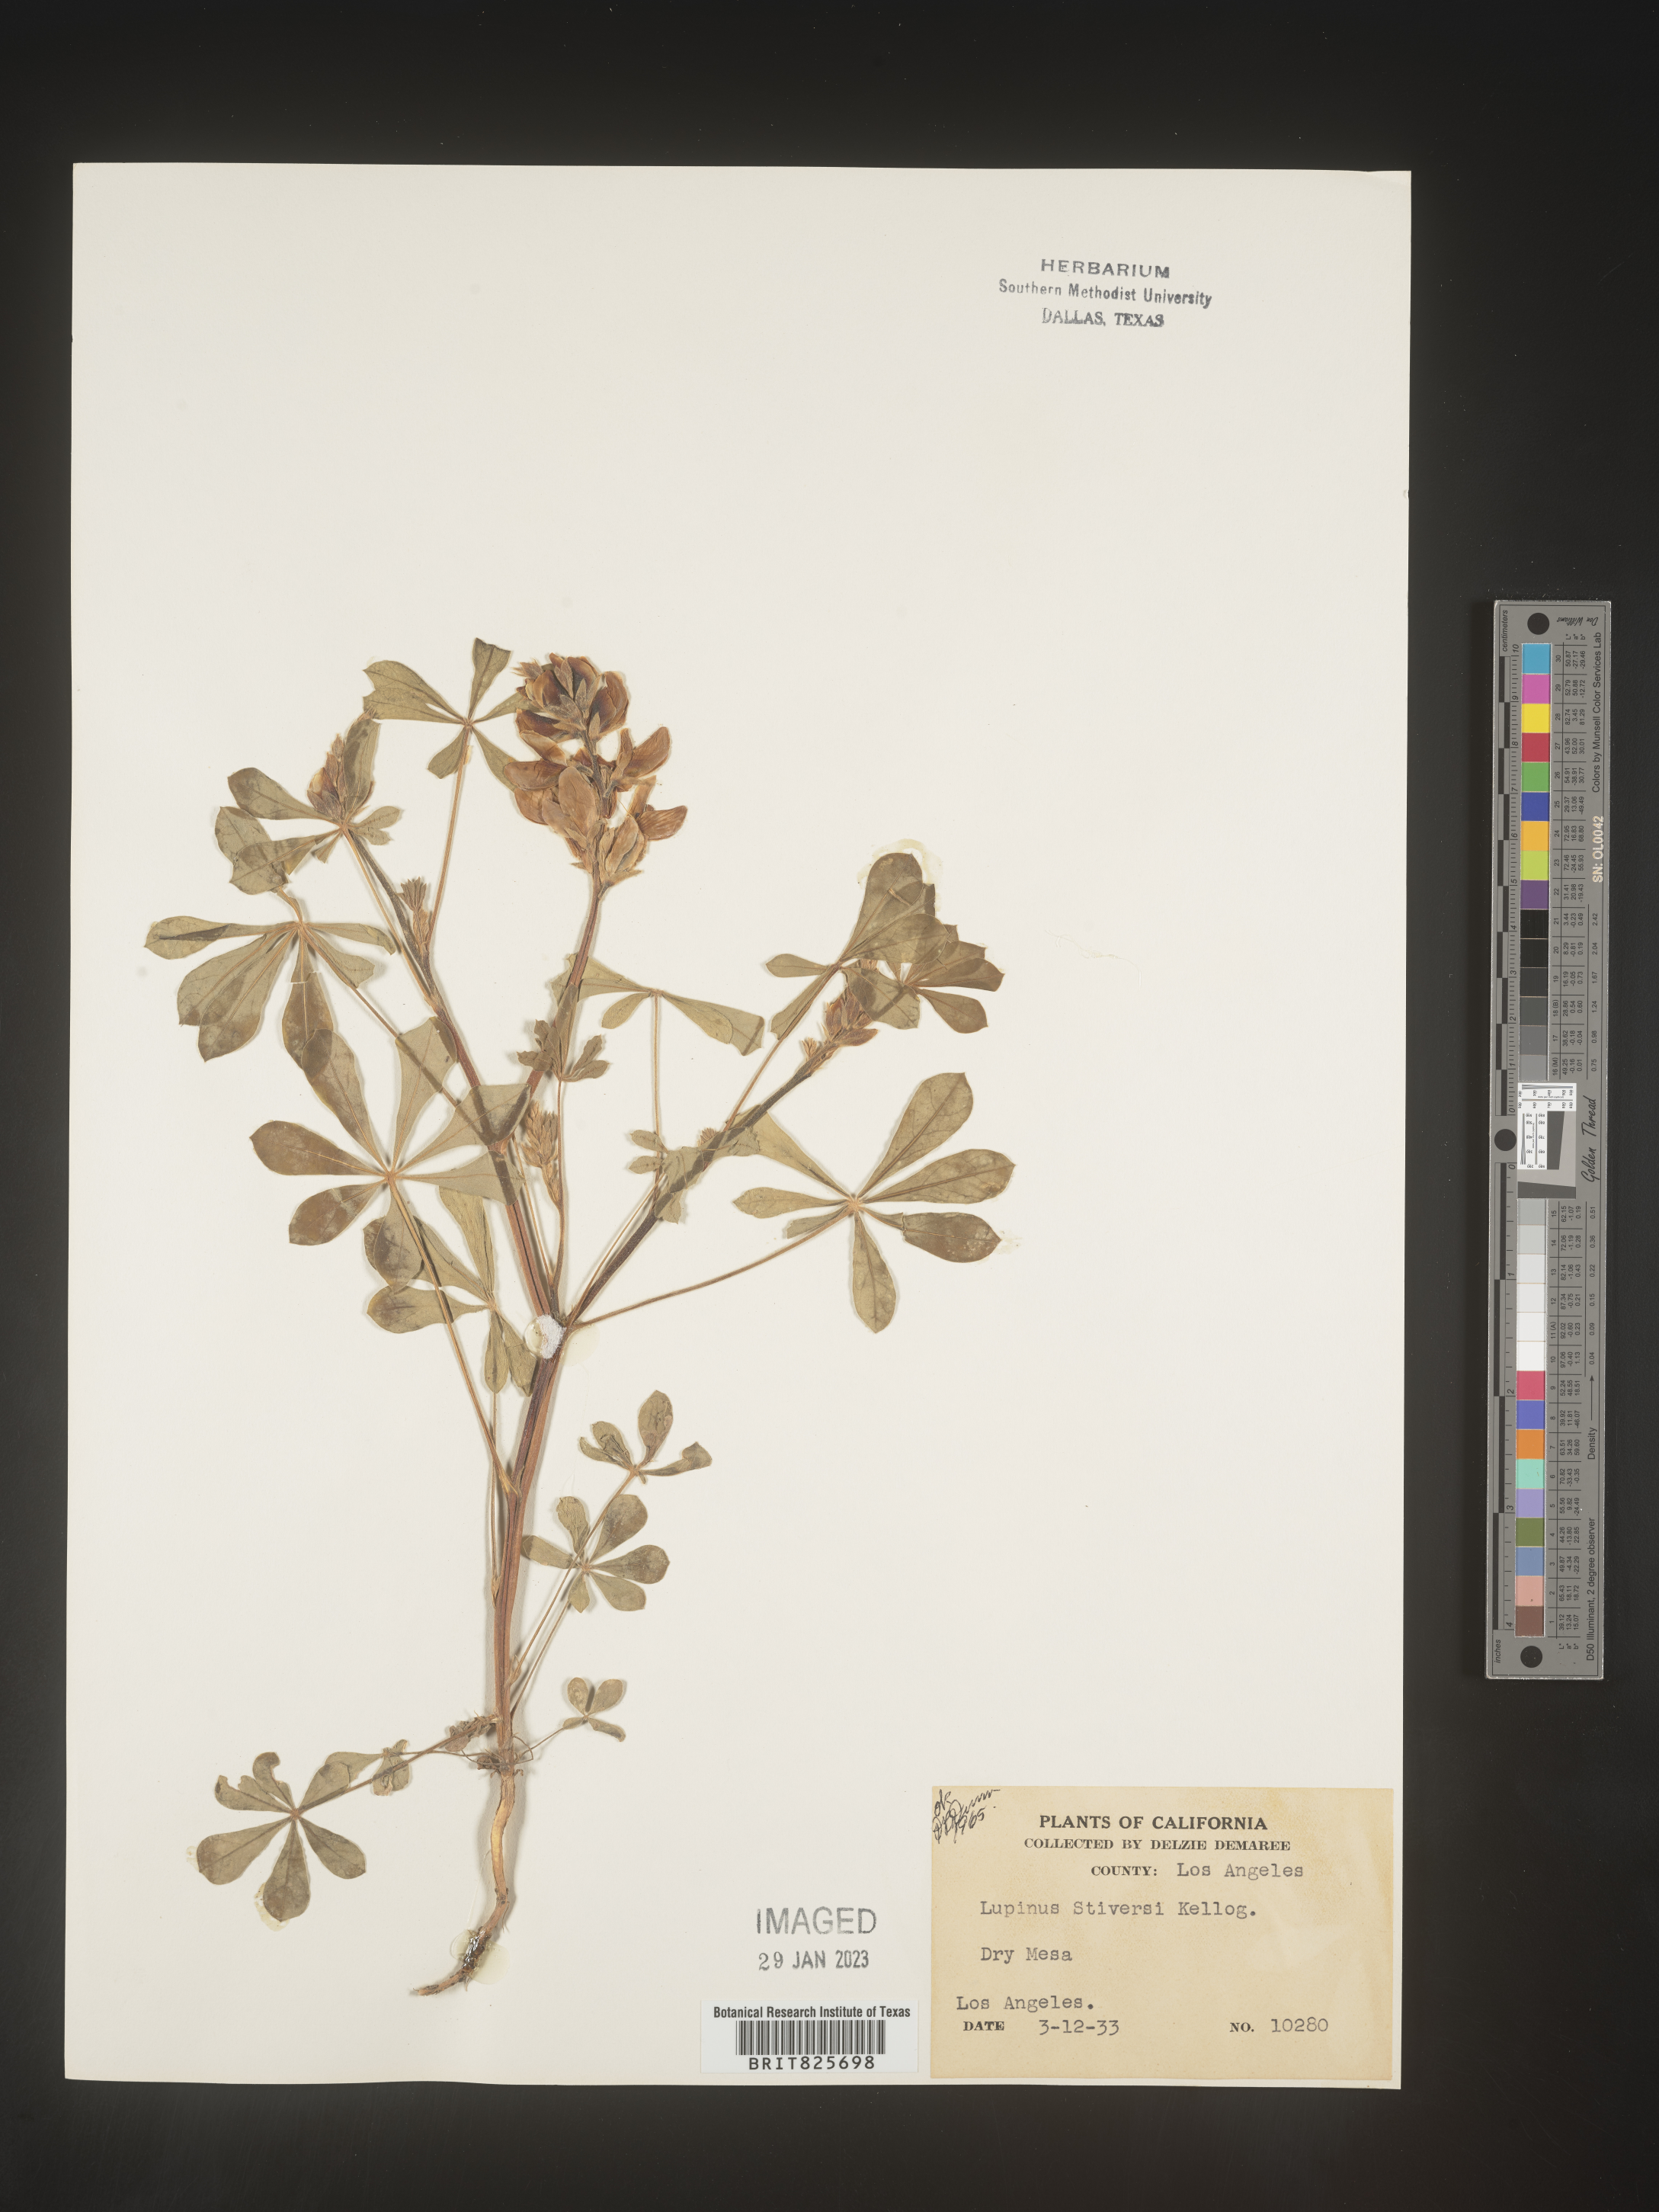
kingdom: Plantae
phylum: Tracheophyta
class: Magnoliopsida
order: Fabales
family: Fabaceae
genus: Lupinus
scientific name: Lupinus
